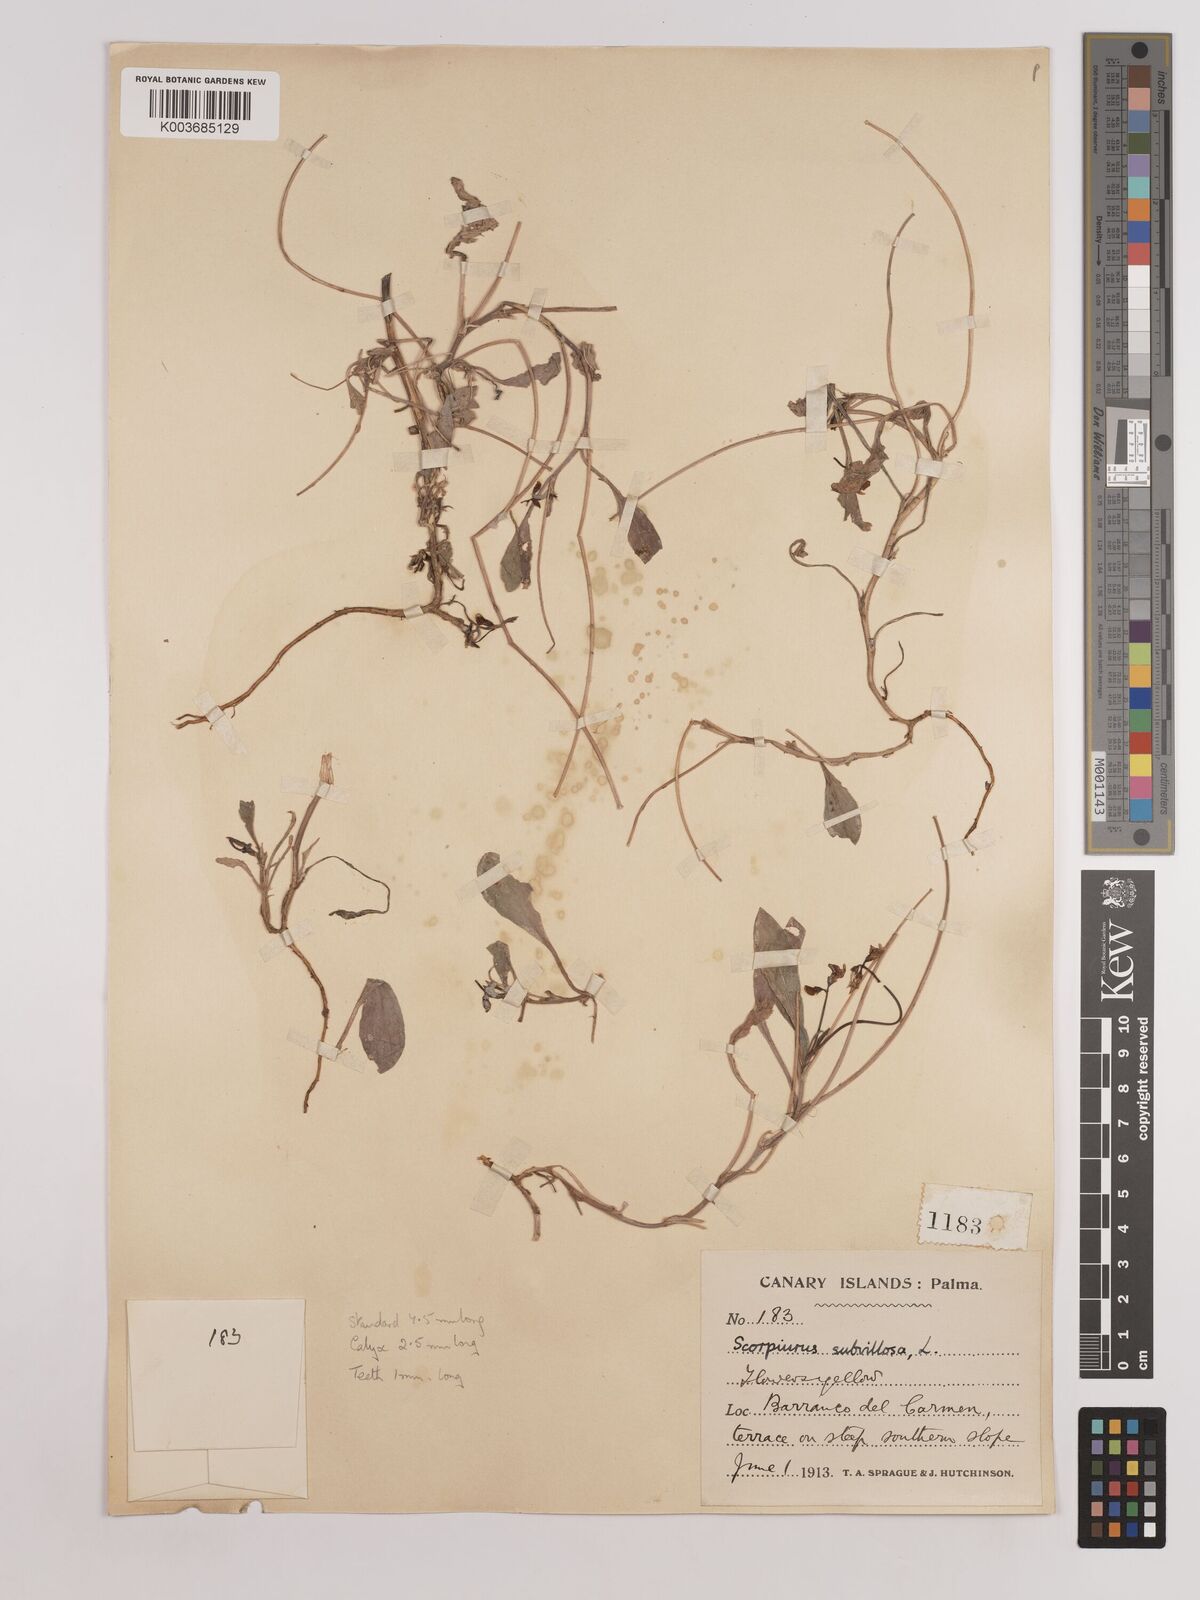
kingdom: Plantae
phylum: Tracheophyta
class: Magnoliopsida
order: Fabales
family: Fabaceae
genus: Scorpiurus
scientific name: Scorpiurus muricatus
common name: Caterpillar-plant
